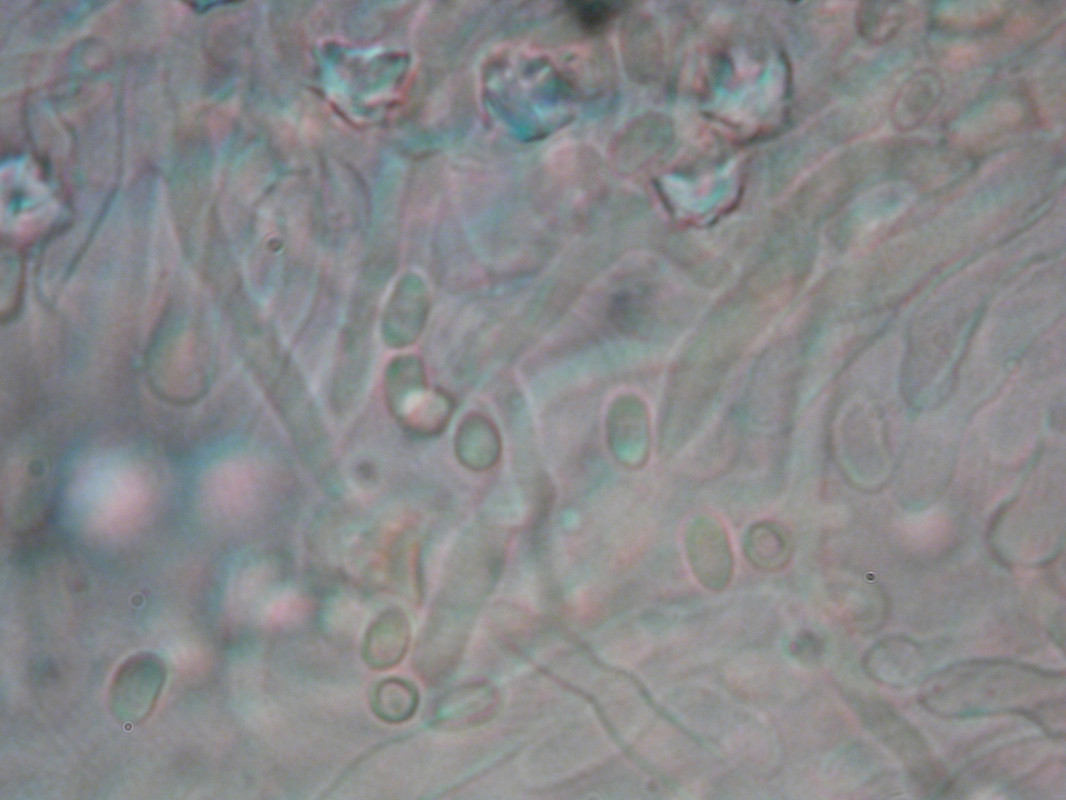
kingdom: Fungi
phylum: Basidiomycota
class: Agaricomycetes
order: Polyporales
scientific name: Polyporales
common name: poresvampordenen
